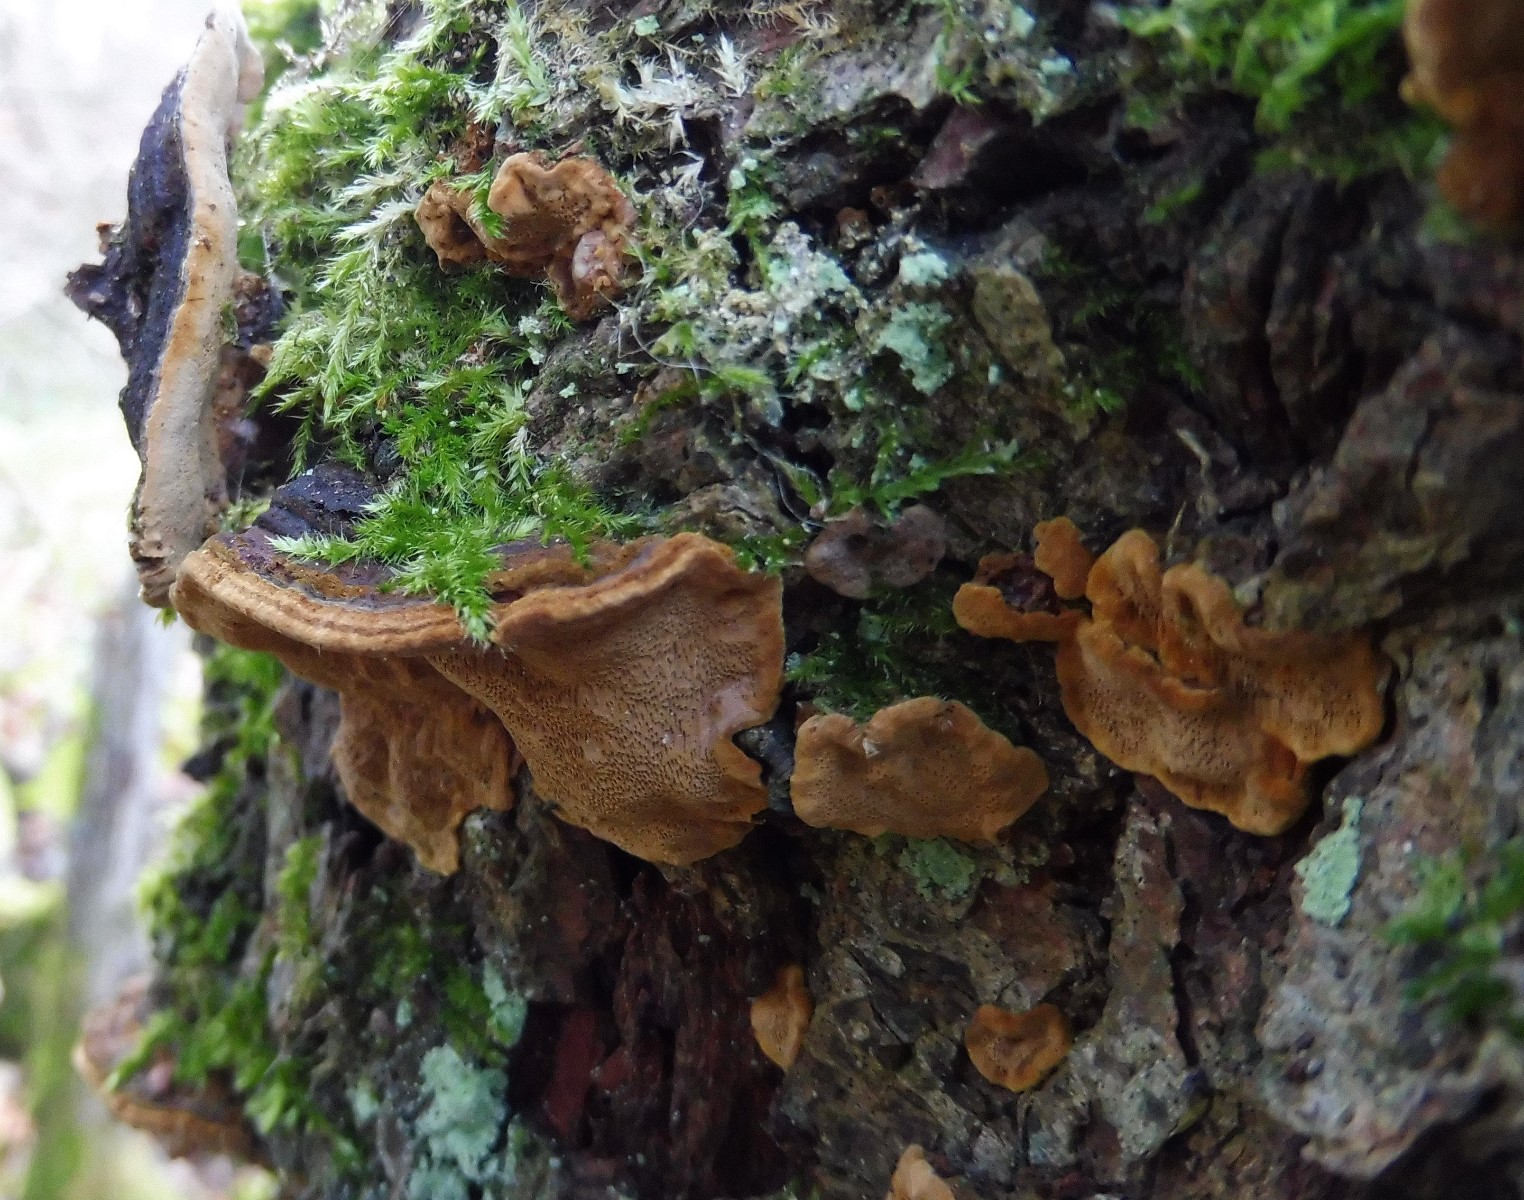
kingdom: Fungi
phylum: Basidiomycota
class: Agaricomycetes
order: Hymenochaetales
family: Hymenochaetaceae
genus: Phellinopsis
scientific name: Phellinopsis conchata
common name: pile-ildporesvamp
